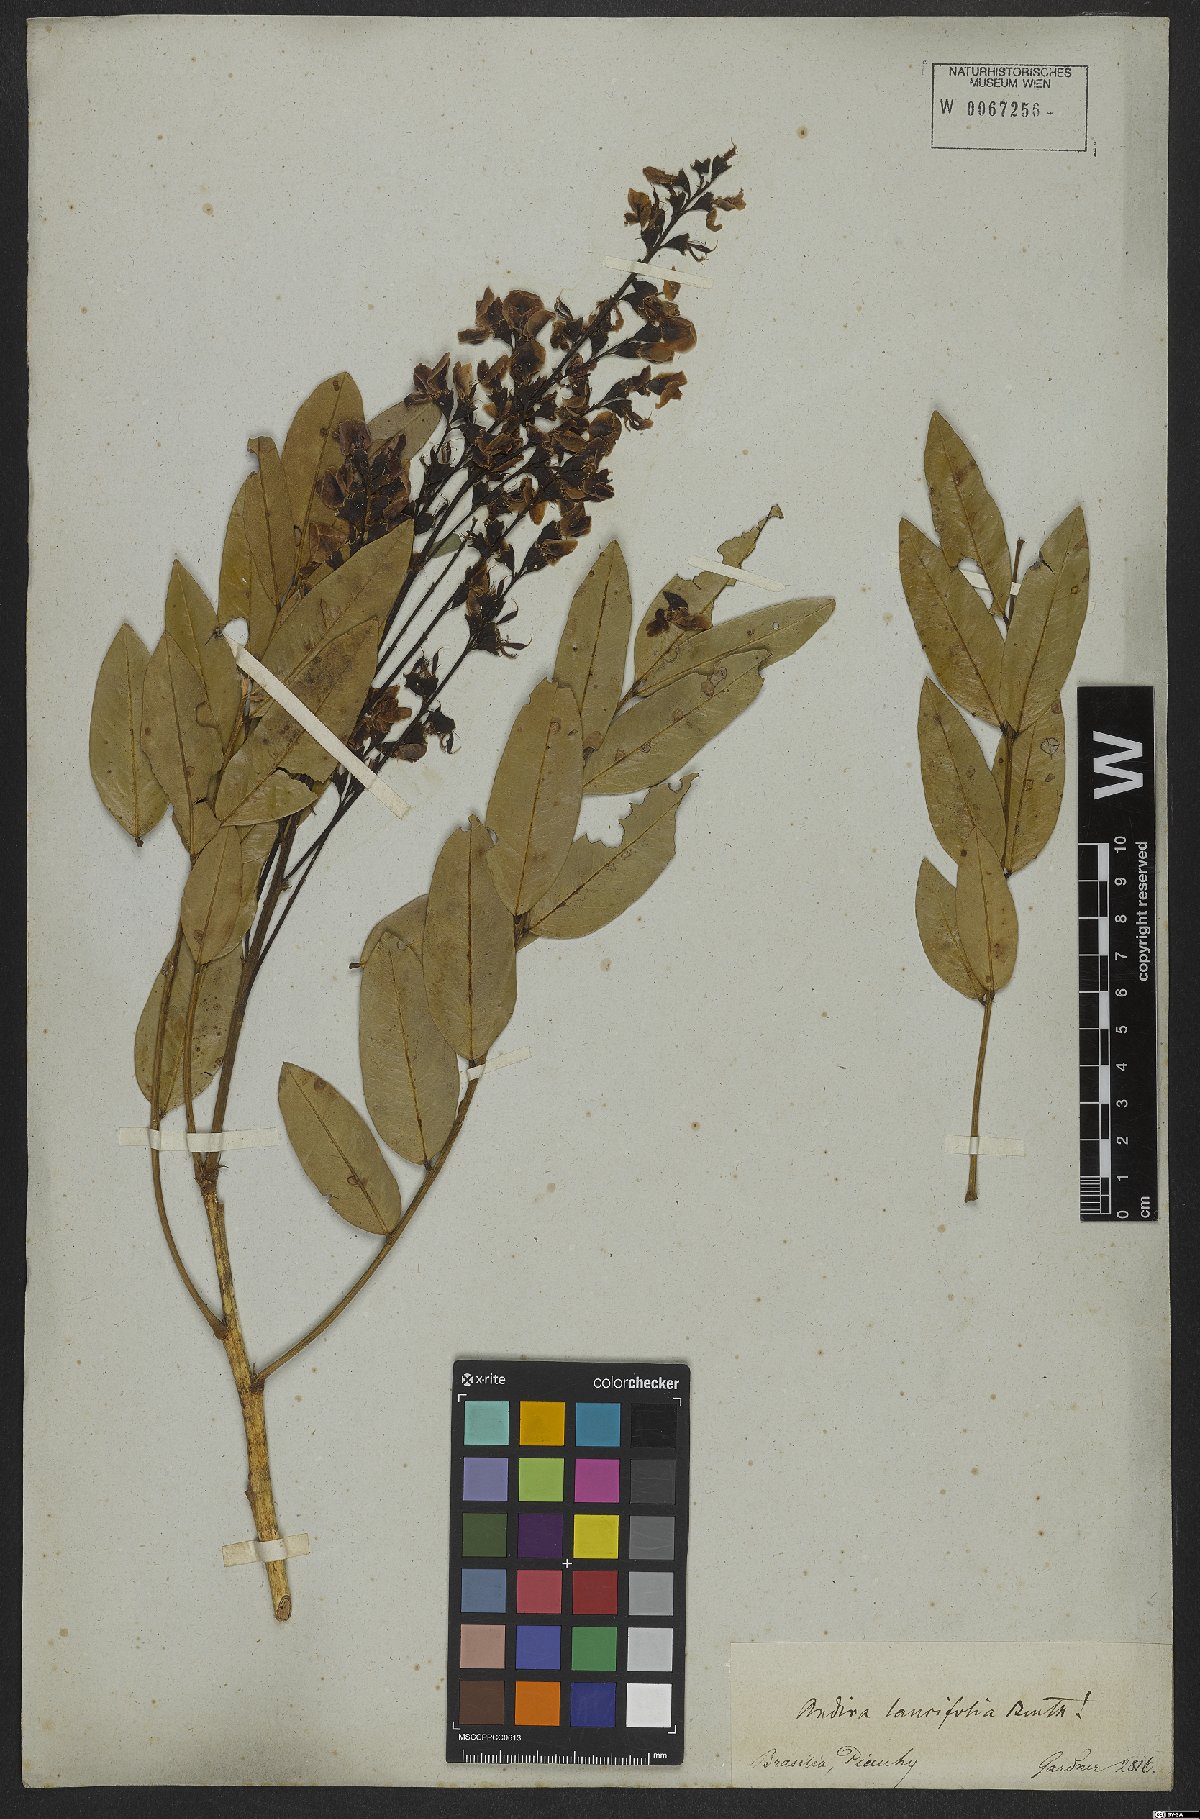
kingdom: Plantae
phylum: Tracheophyta
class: Magnoliopsida
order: Fabales
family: Fabaceae
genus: Andira
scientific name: Andira humilis
